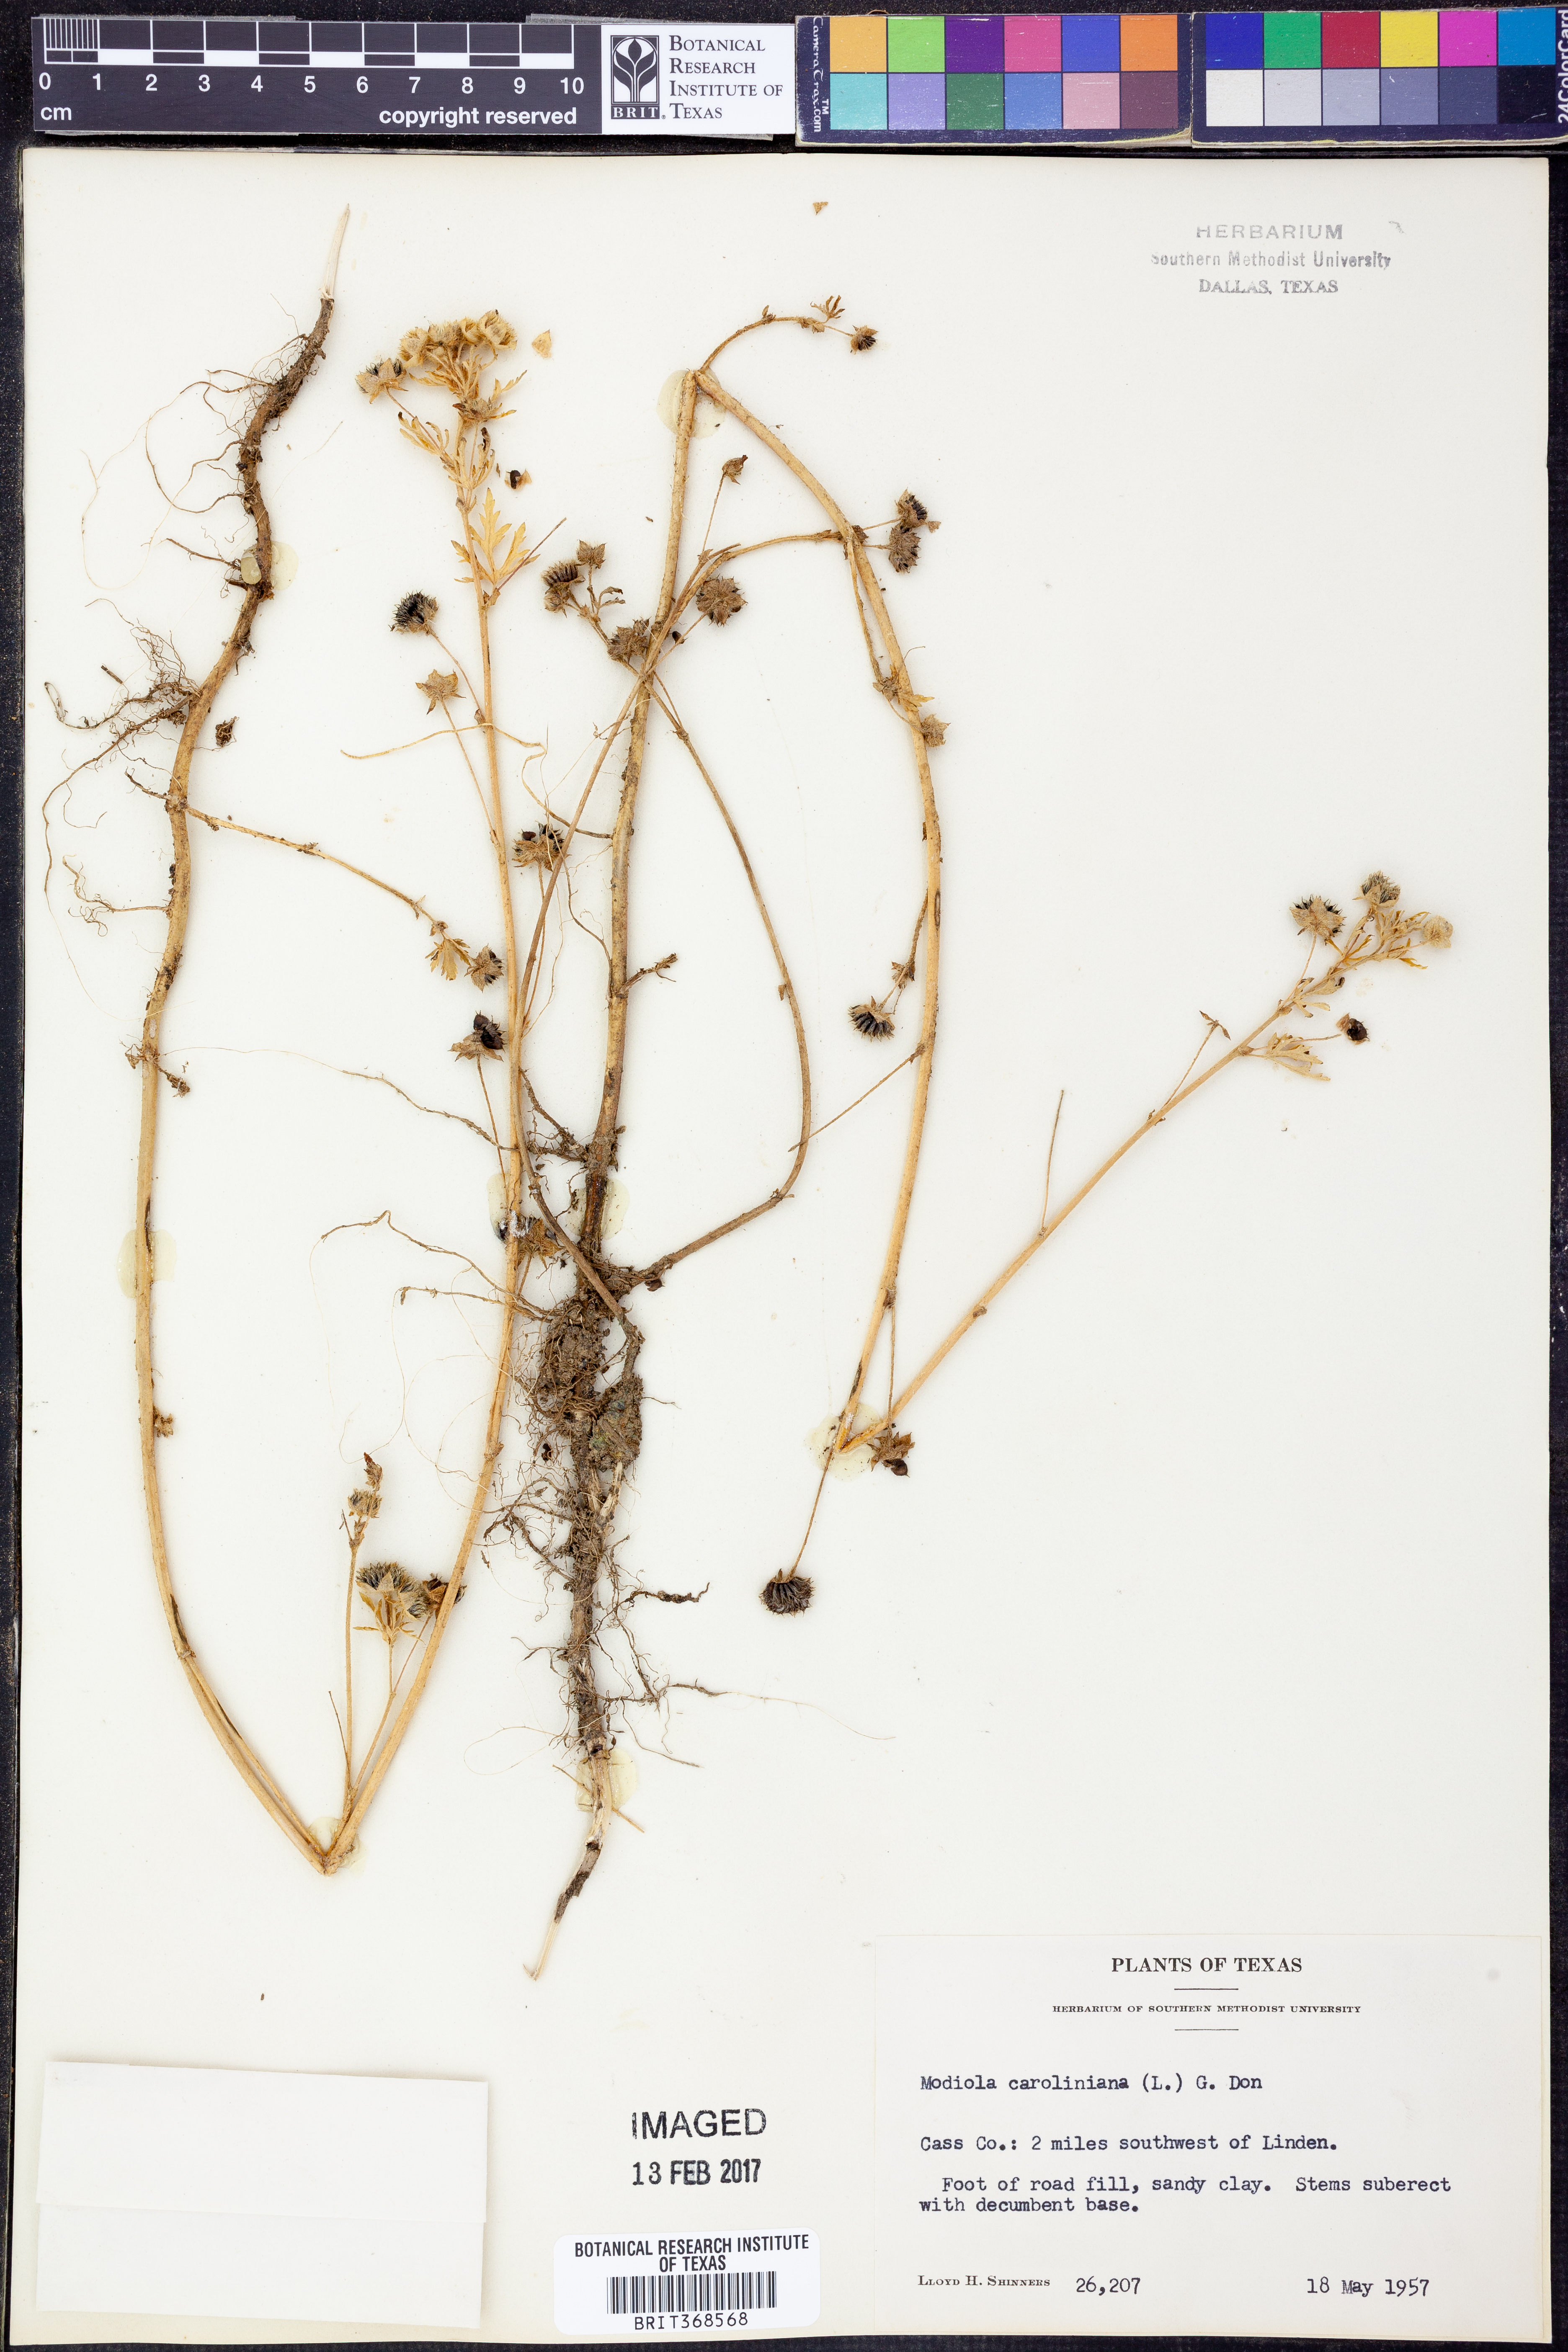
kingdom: Plantae
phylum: Tracheophyta
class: Magnoliopsida
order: Malvales
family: Malvaceae
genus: Modiola
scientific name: Modiola caroliniana
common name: Carolina bristlemallow
